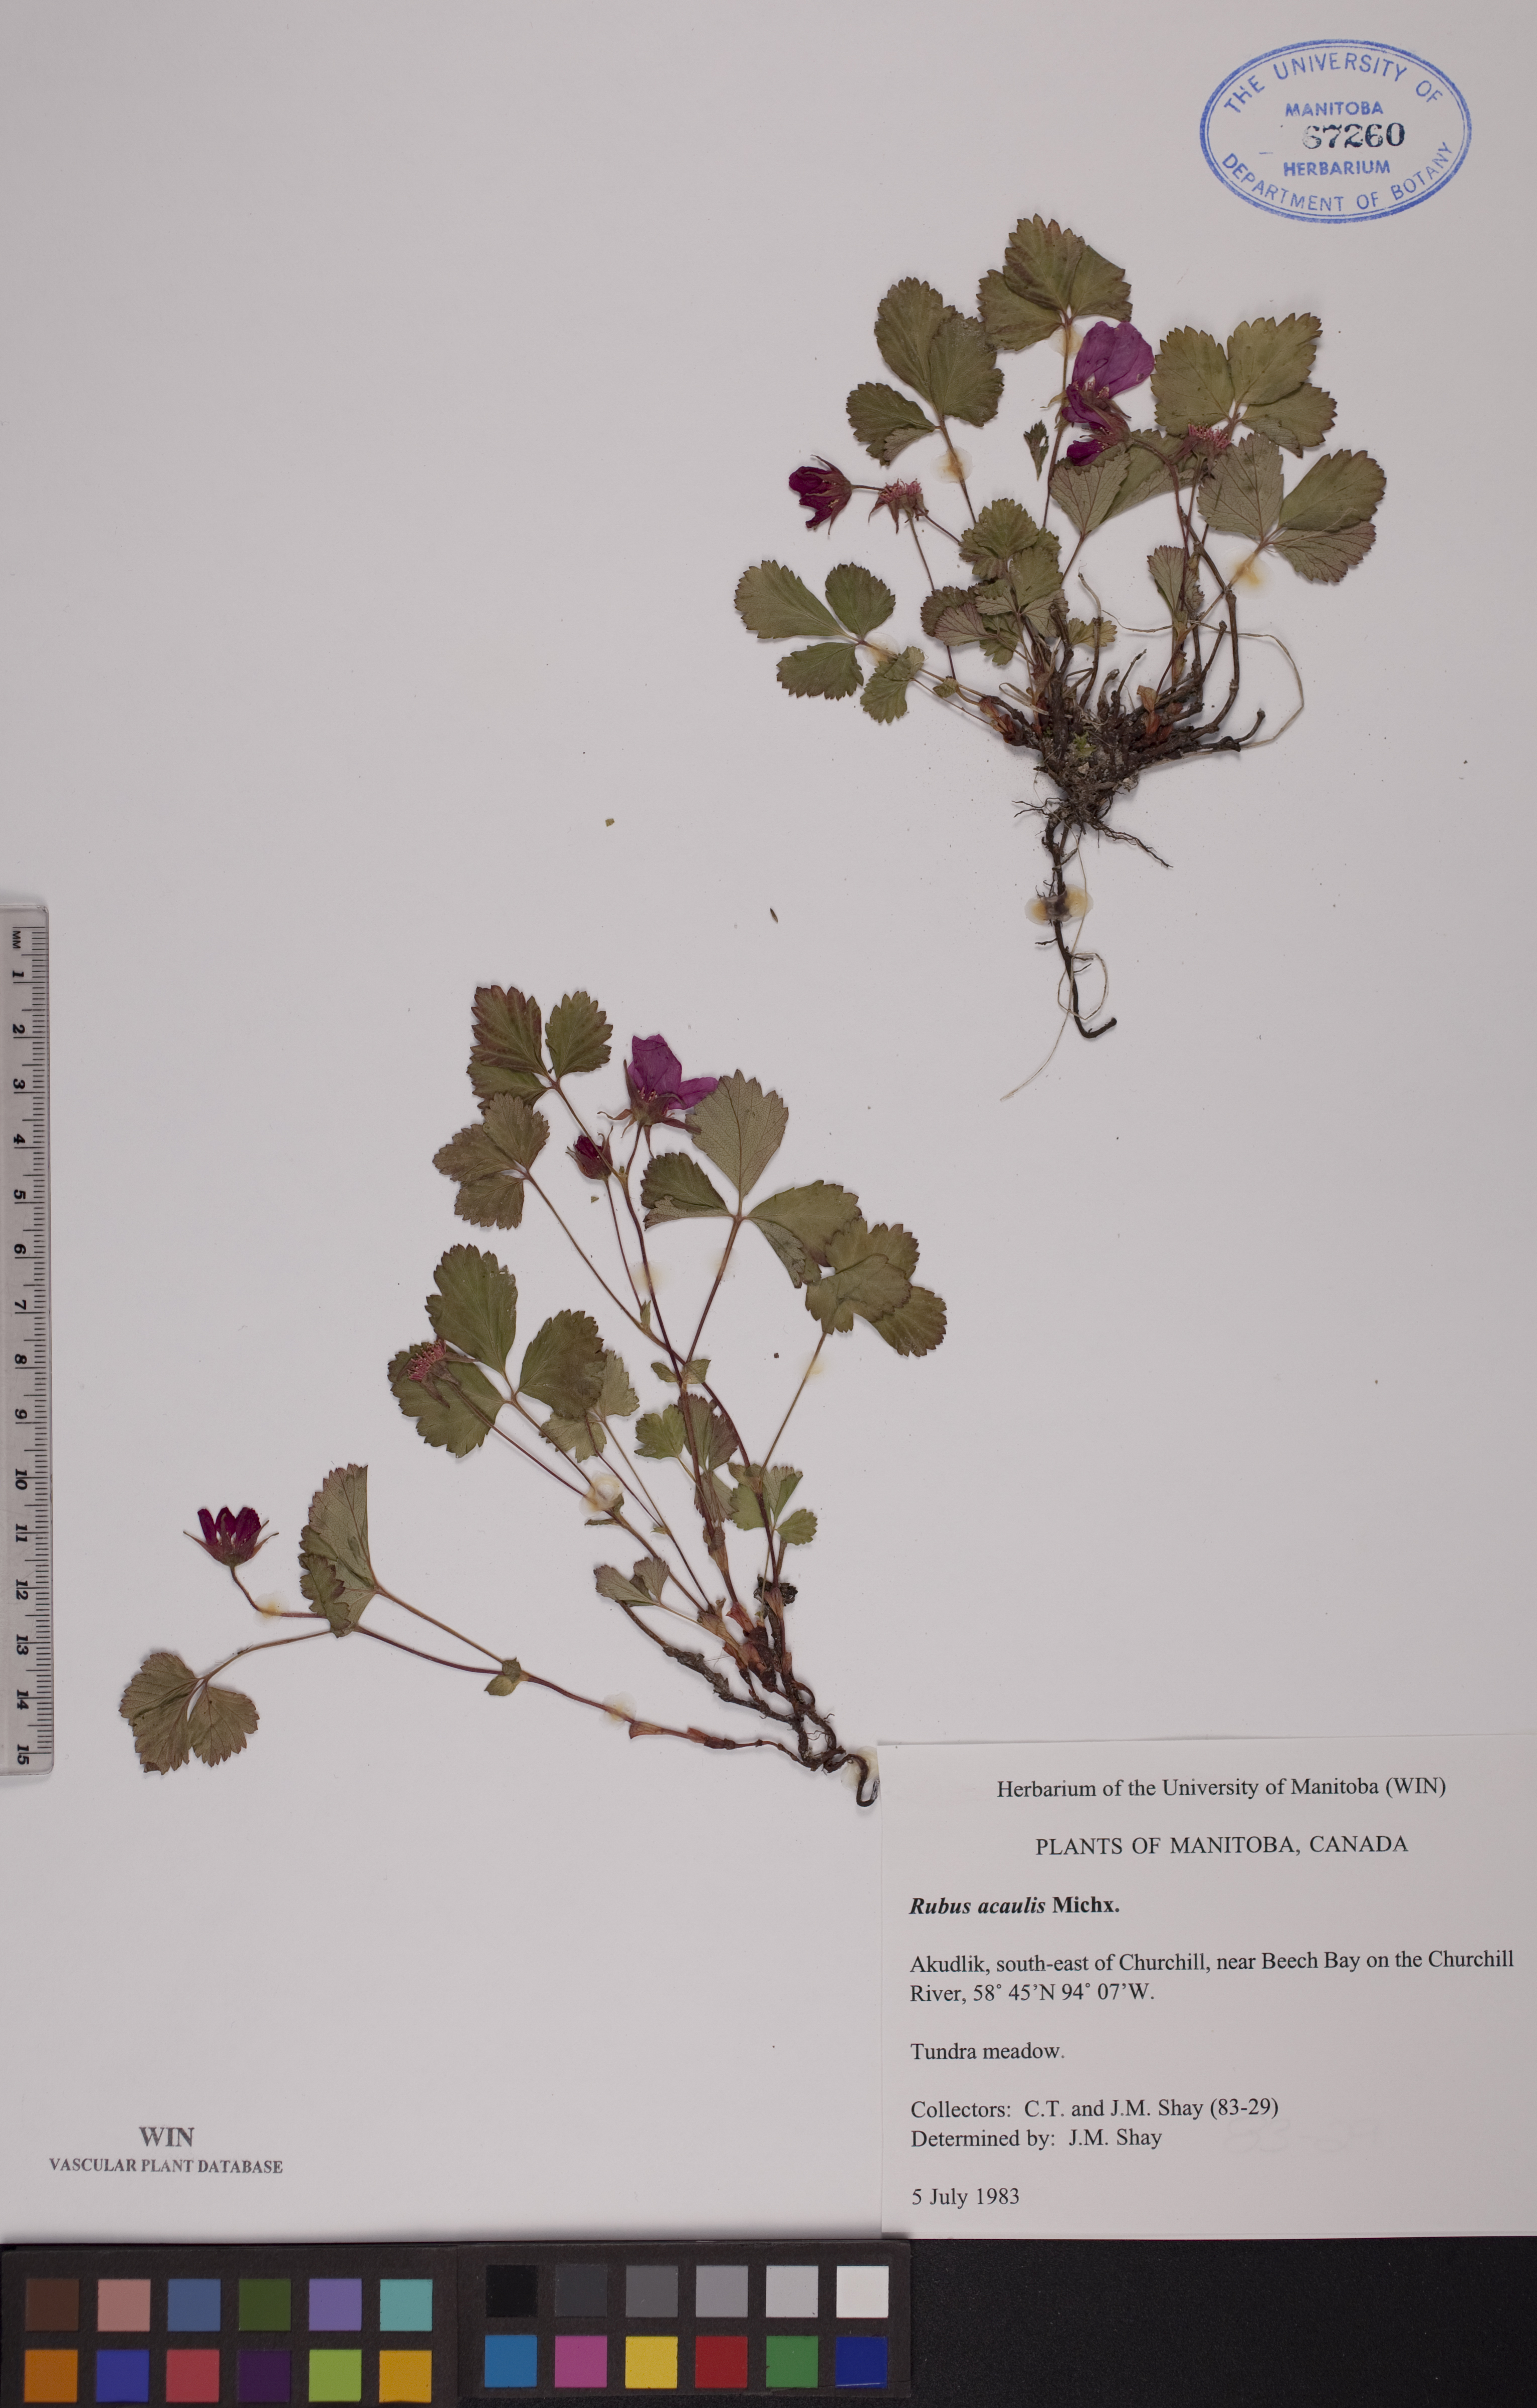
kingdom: Plantae
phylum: Tracheophyta
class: Magnoliopsida
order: Rosales
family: Rosaceae
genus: Rubus
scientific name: Rubus arcticus
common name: Arctic bramble
